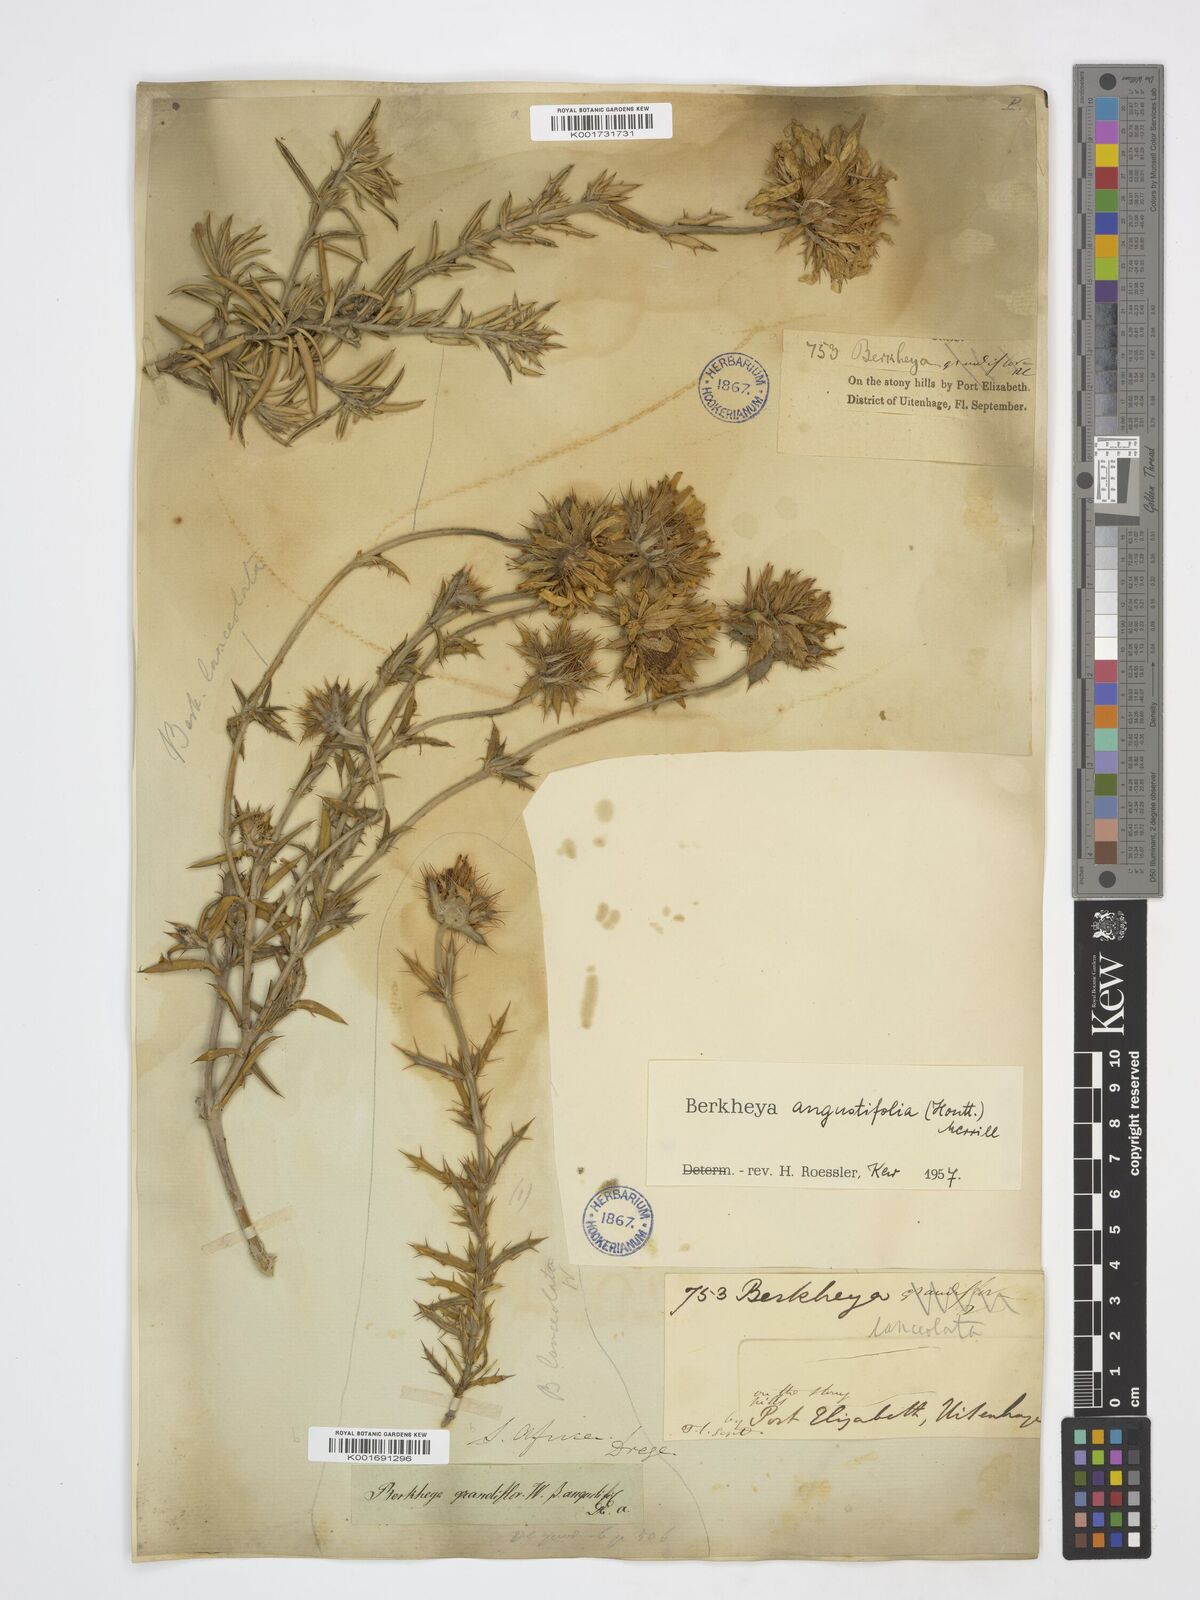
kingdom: Plantae
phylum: Tracheophyta
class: Magnoliopsida
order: Asterales
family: Asteraceae
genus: Berkheya
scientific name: Berkheya angustifolia
